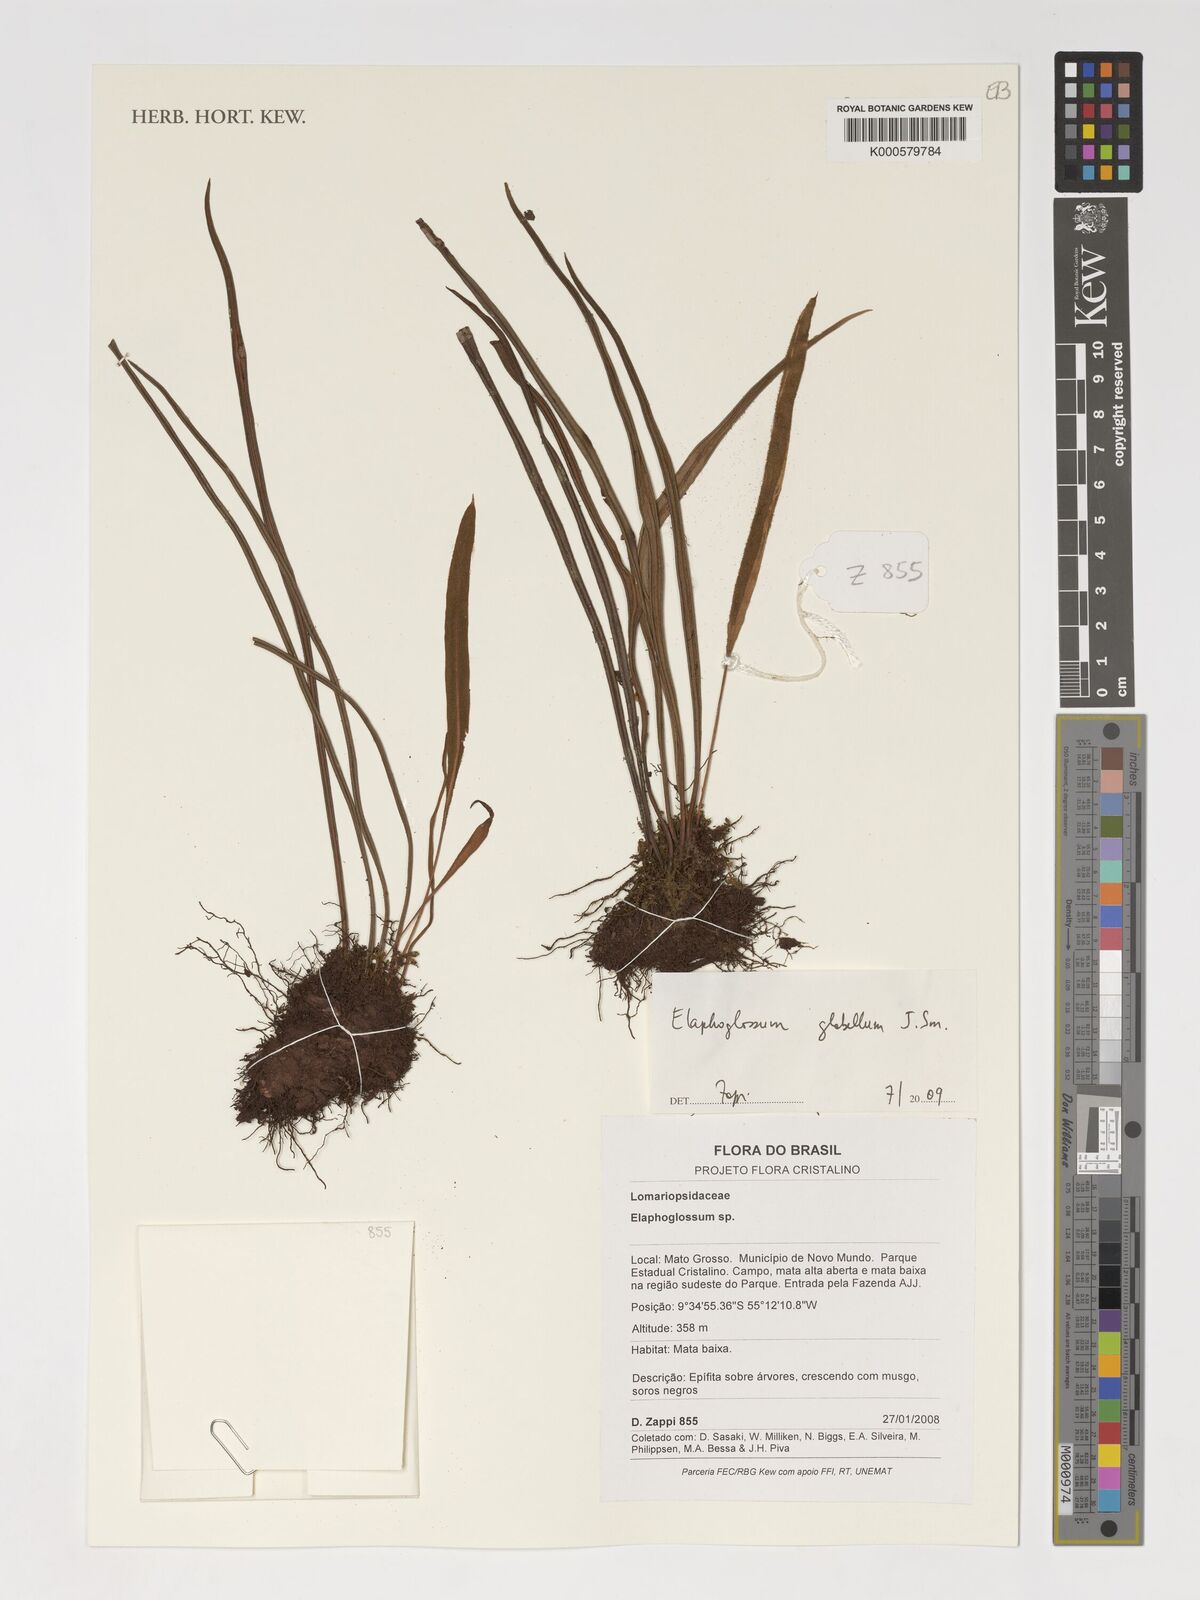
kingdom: Plantae
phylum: Tracheophyta
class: Polypodiopsida
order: Polypodiales
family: Dryopteridaceae
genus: Elaphoglossum
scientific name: Elaphoglossum glabellum
